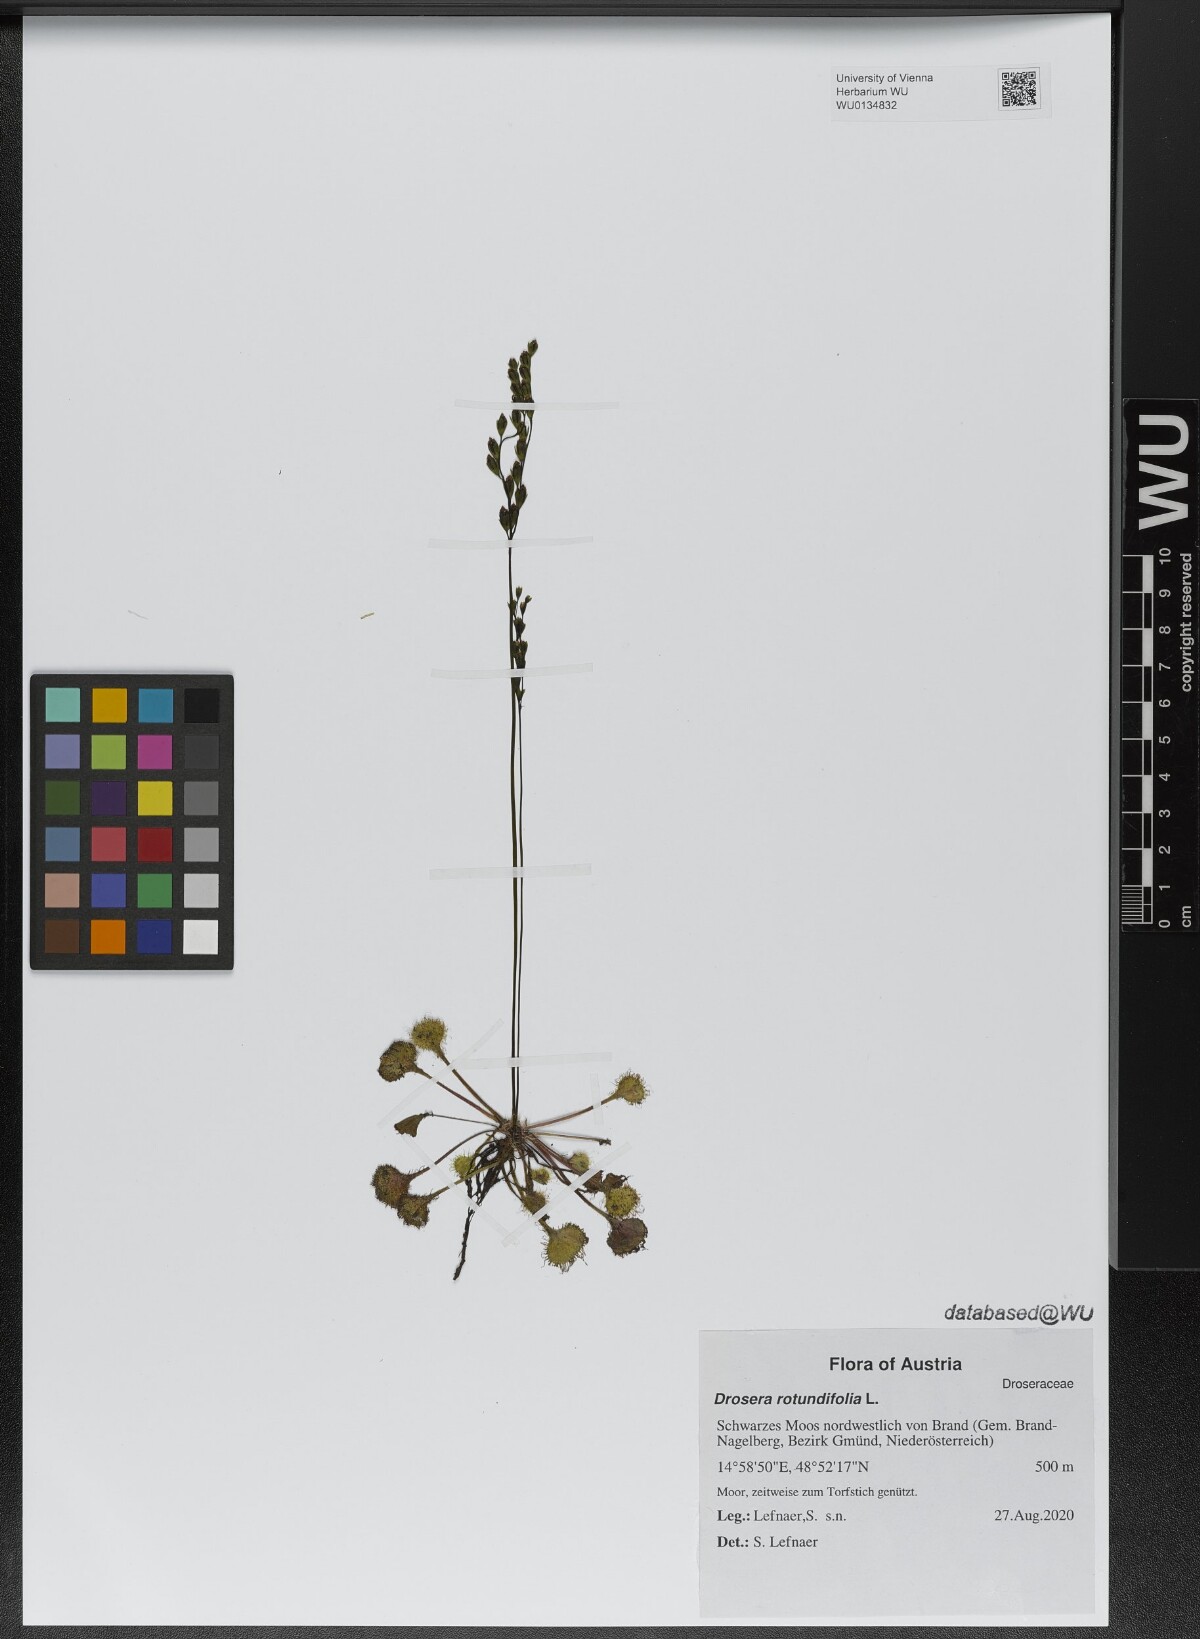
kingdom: Plantae
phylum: Tracheophyta
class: Magnoliopsida
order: Caryophyllales
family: Droseraceae
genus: Drosera
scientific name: Drosera rotundifolia
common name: Round-leaved sundew
